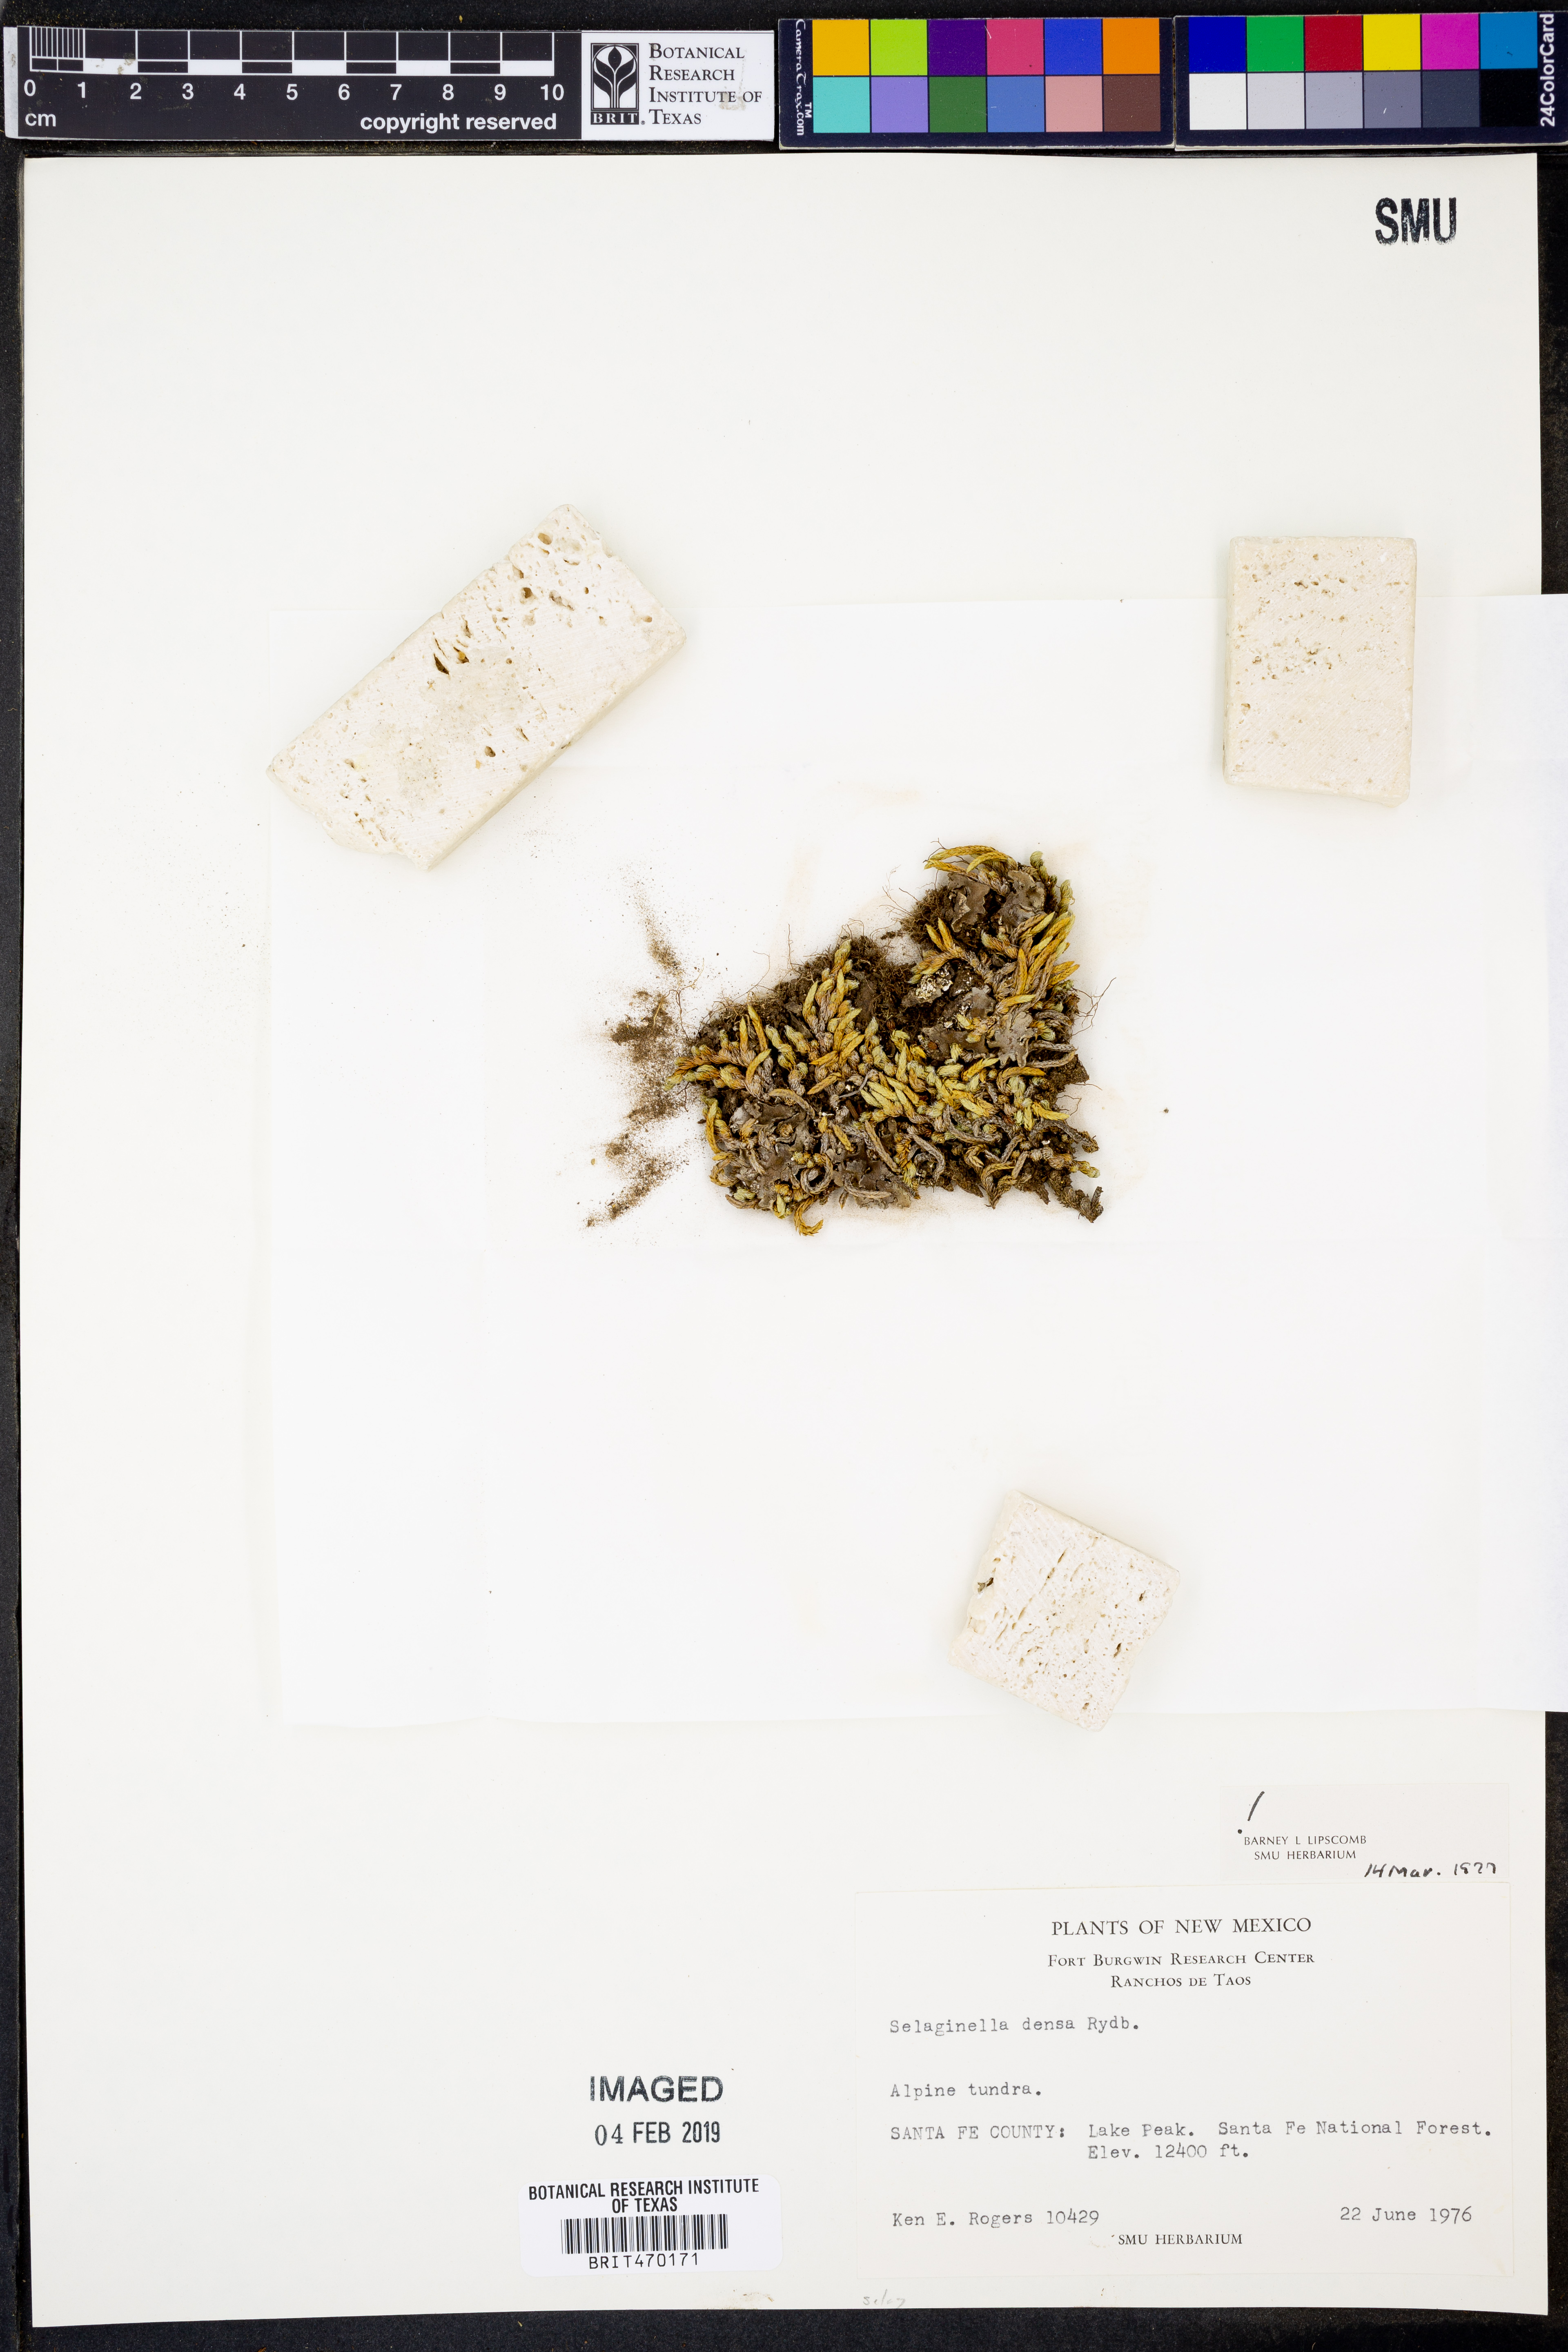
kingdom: Plantae
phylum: Tracheophyta
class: Lycopodiopsida
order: Selaginellales
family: Selaginellaceae
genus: Selaginella
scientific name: Selaginella densa
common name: Mountain spike-moss
